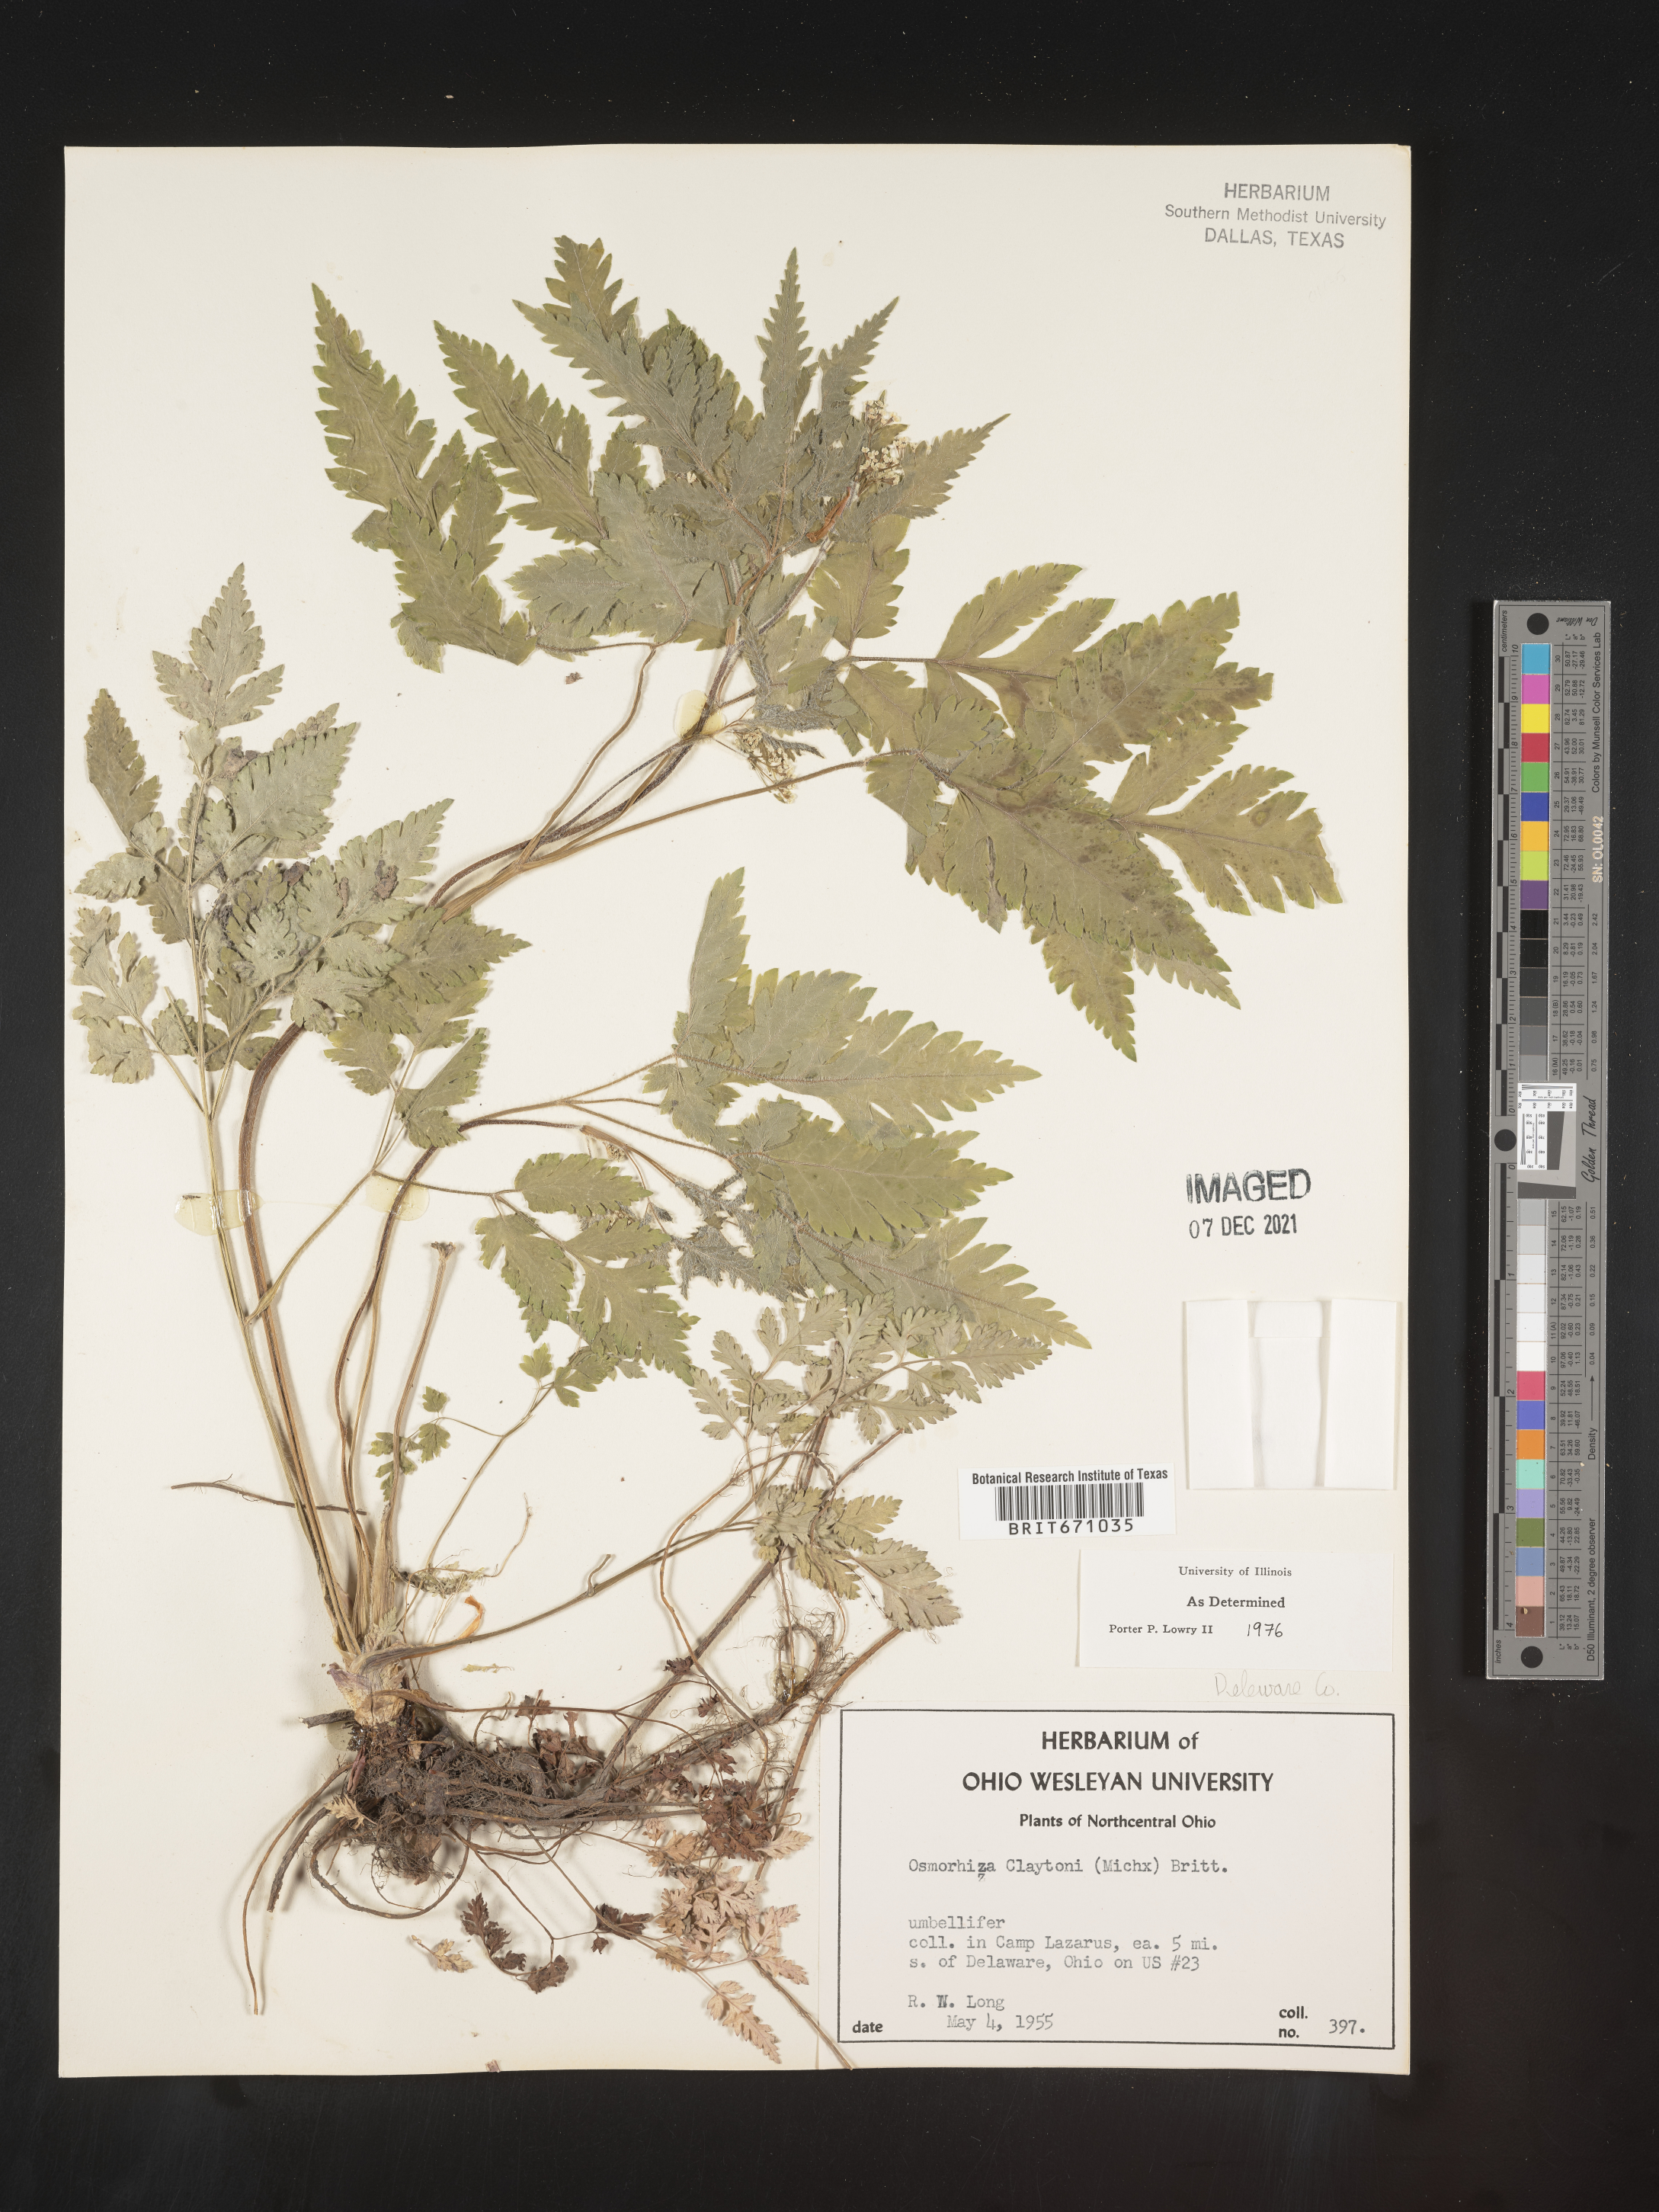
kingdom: Plantae
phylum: Tracheophyta
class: Magnoliopsida
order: Apiales
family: Apiaceae
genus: Osmorhiza
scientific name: Osmorhiza claytonii
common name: Hairy sweet cicely
